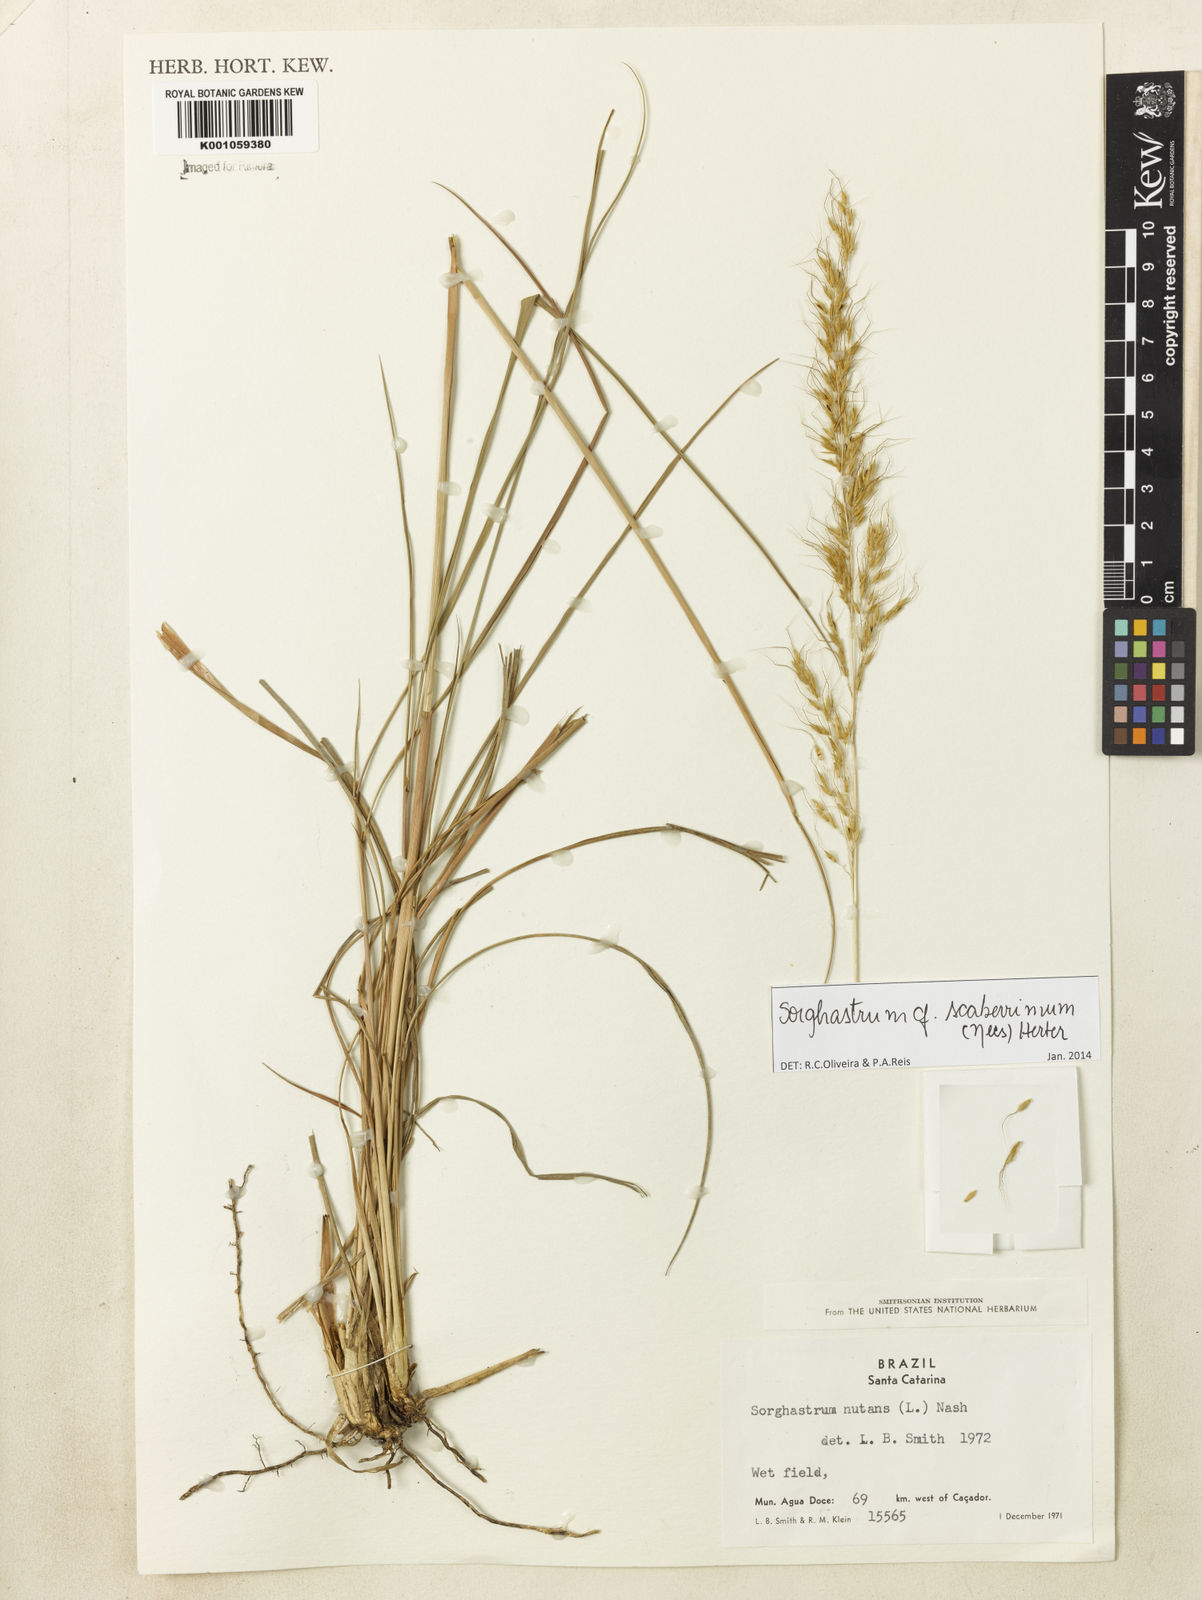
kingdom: Plantae
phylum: Tracheophyta
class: Liliopsida
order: Poales
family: Poaceae
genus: Sorghastrum
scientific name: Sorghastrum scaberrimum
